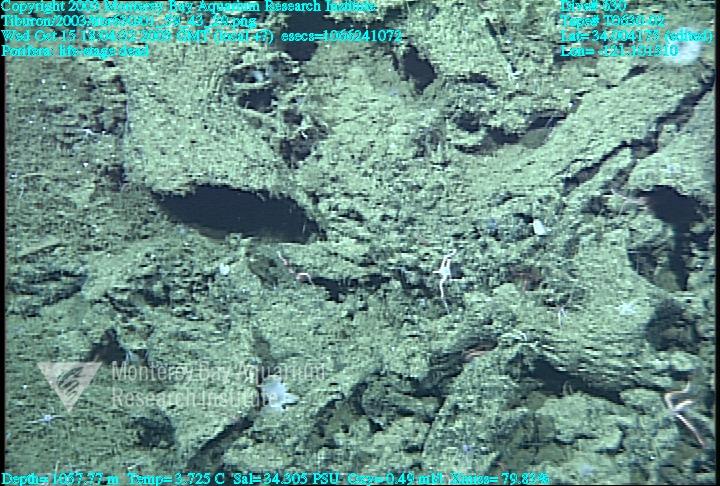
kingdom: Animalia
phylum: Porifera
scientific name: Porifera
